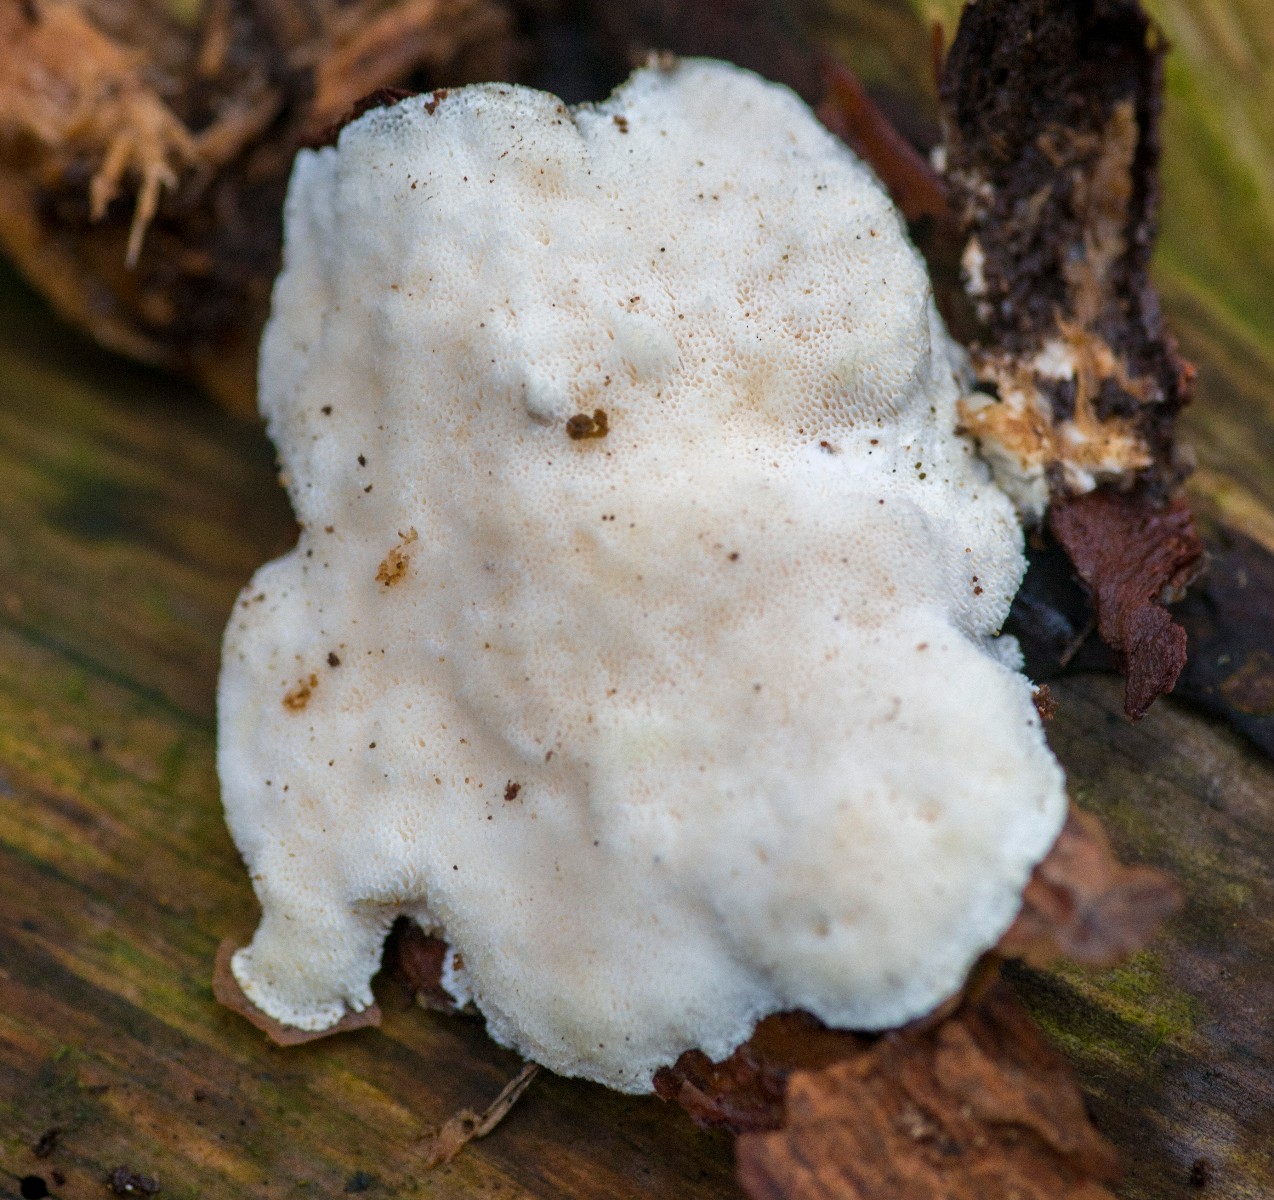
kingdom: Fungi
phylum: Basidiomycota
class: Agaricomycetes
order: Polyporales
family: Incrustoporiaceae
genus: Tyromyces
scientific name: Tyromyces lacteus
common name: mælkehvid kødporesvamp
